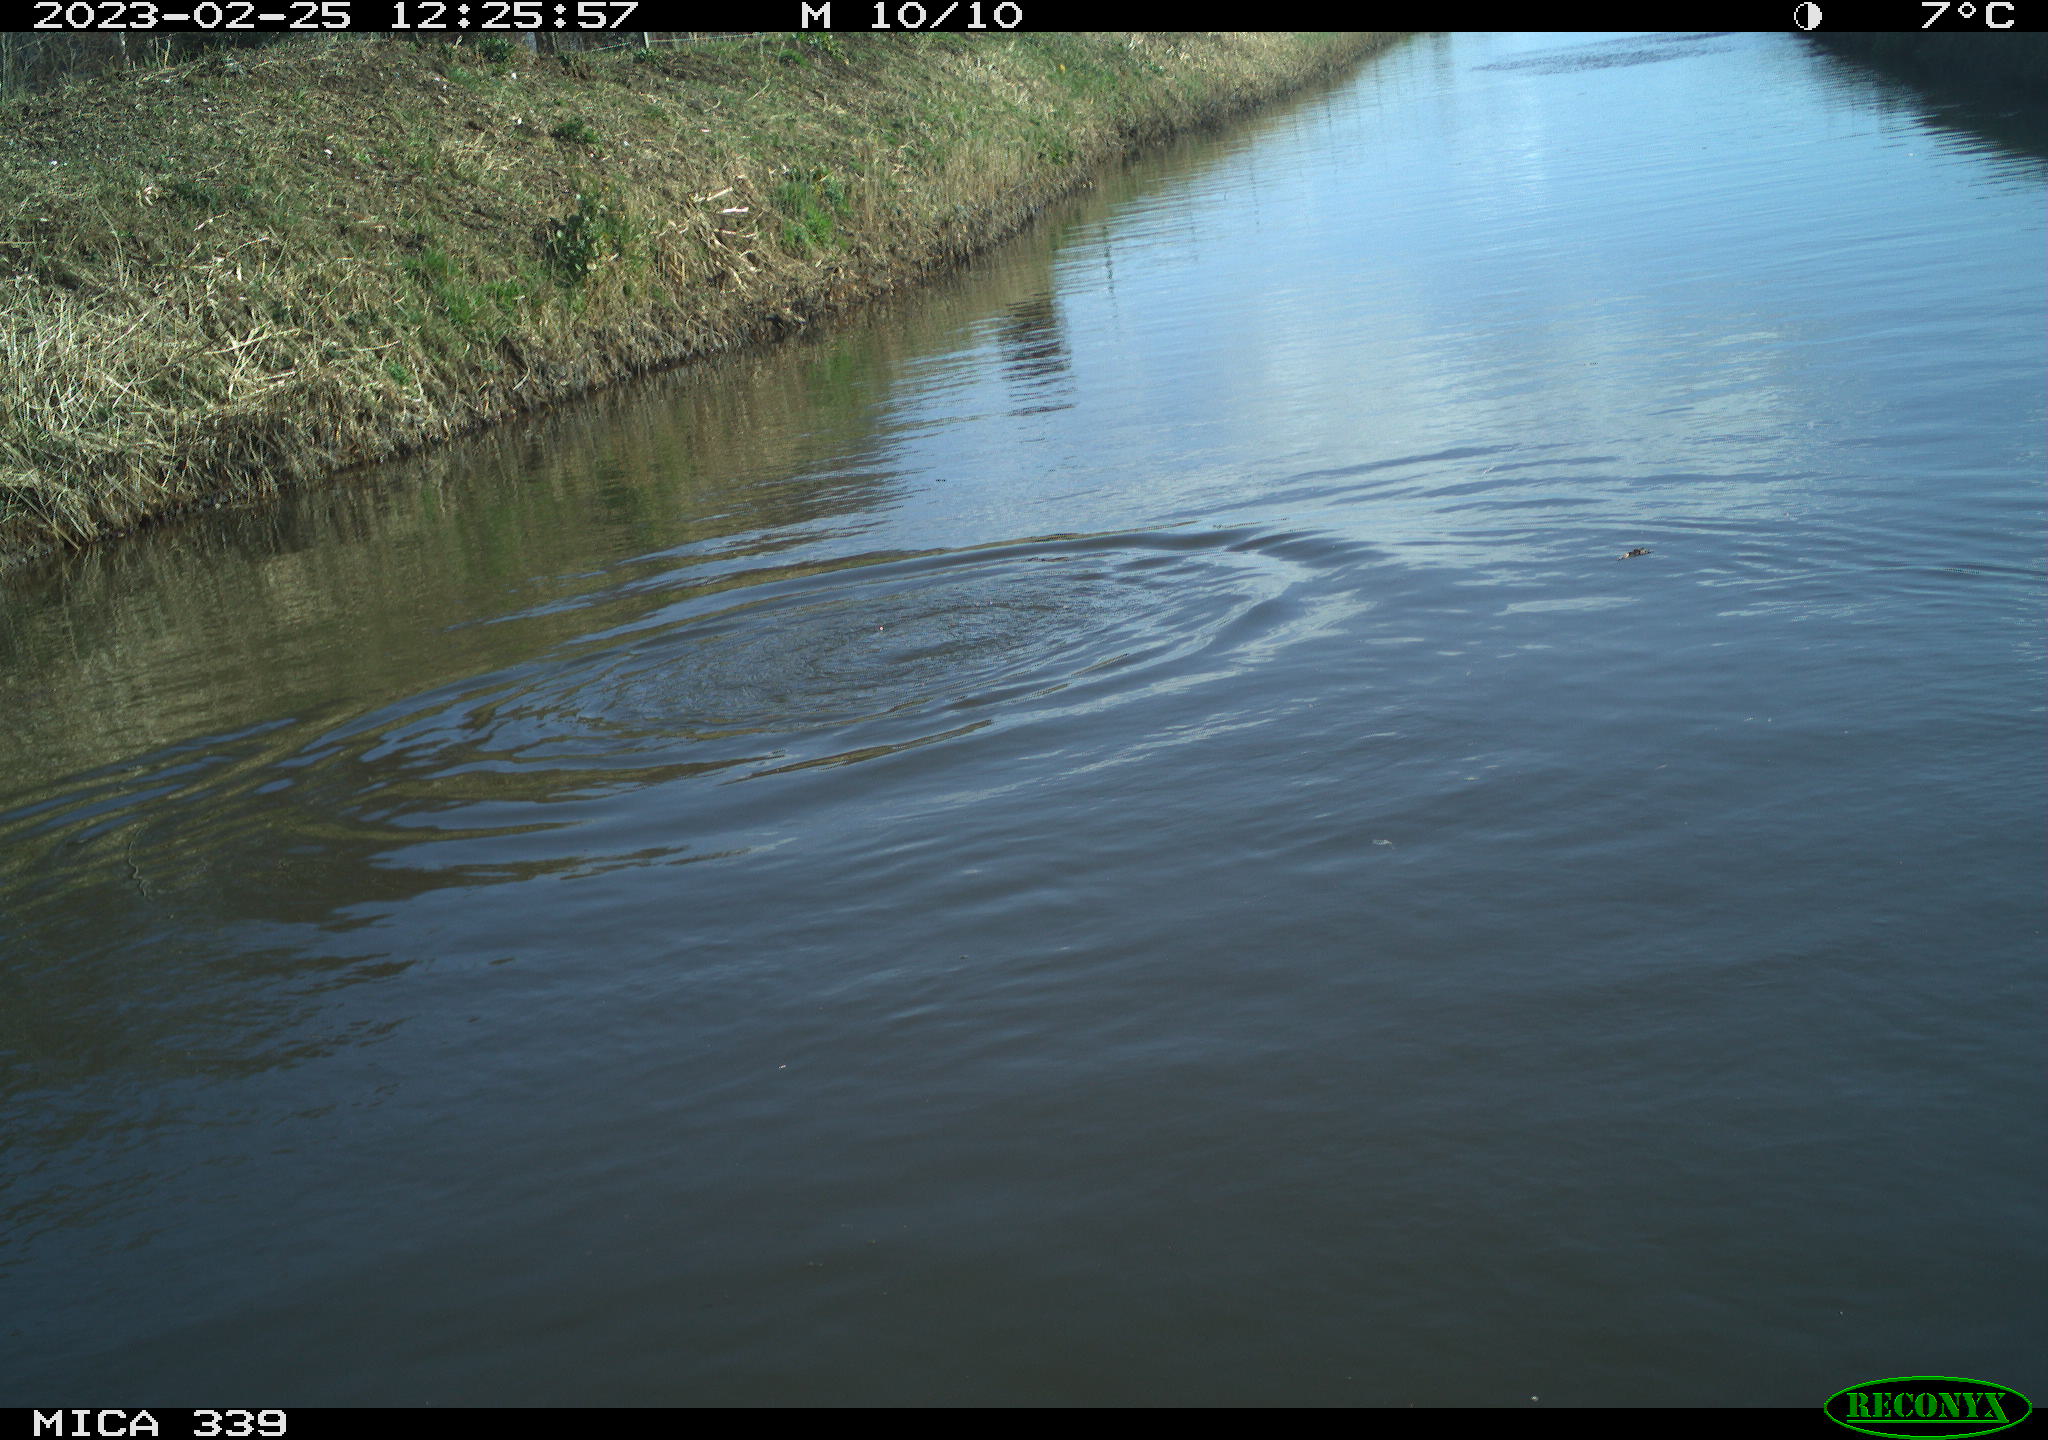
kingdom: Animalia
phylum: Chordata
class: Aves
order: Suliformes
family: Phalacrocoracidae
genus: Phalacrocorax
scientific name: Phalacrocorax carbo
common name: Great cormorant
